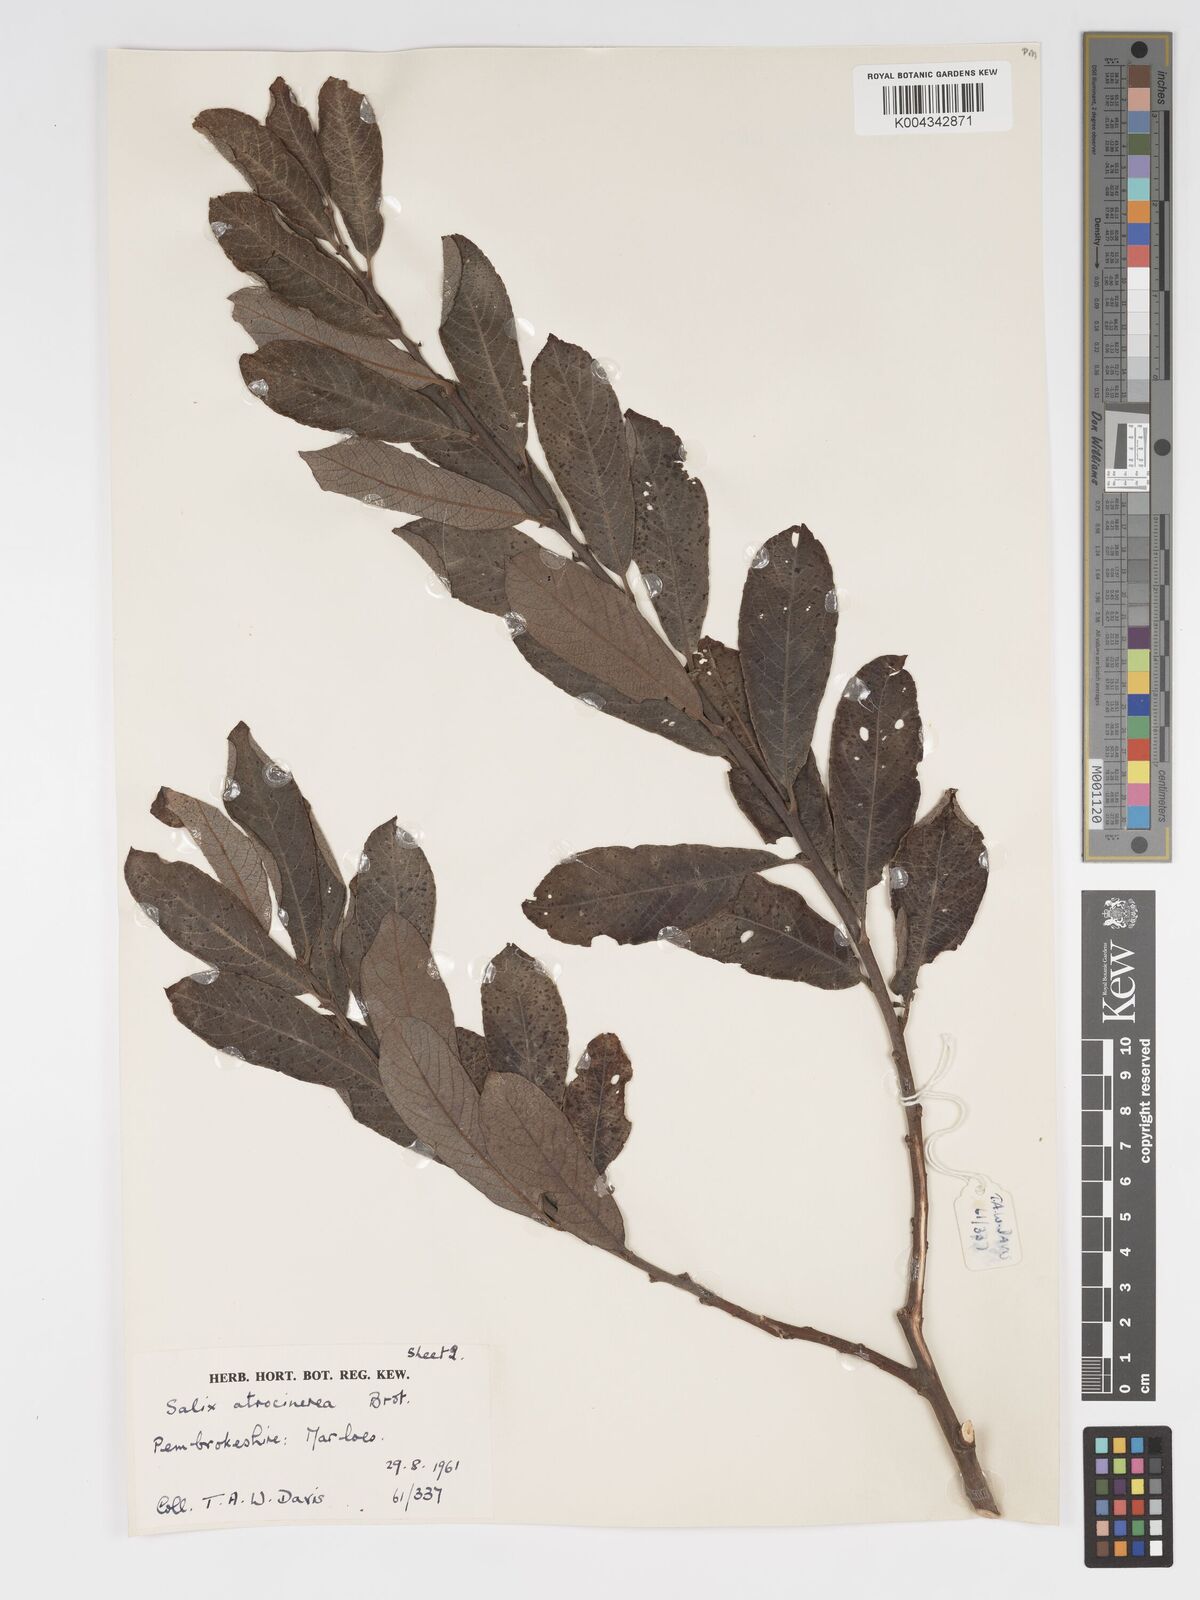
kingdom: Plantae
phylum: Tracheophyta
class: Magnoliopsida
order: Malpighiales
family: Salicaceae
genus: Salix
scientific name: Salix atrocinerea
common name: Rusty willow
